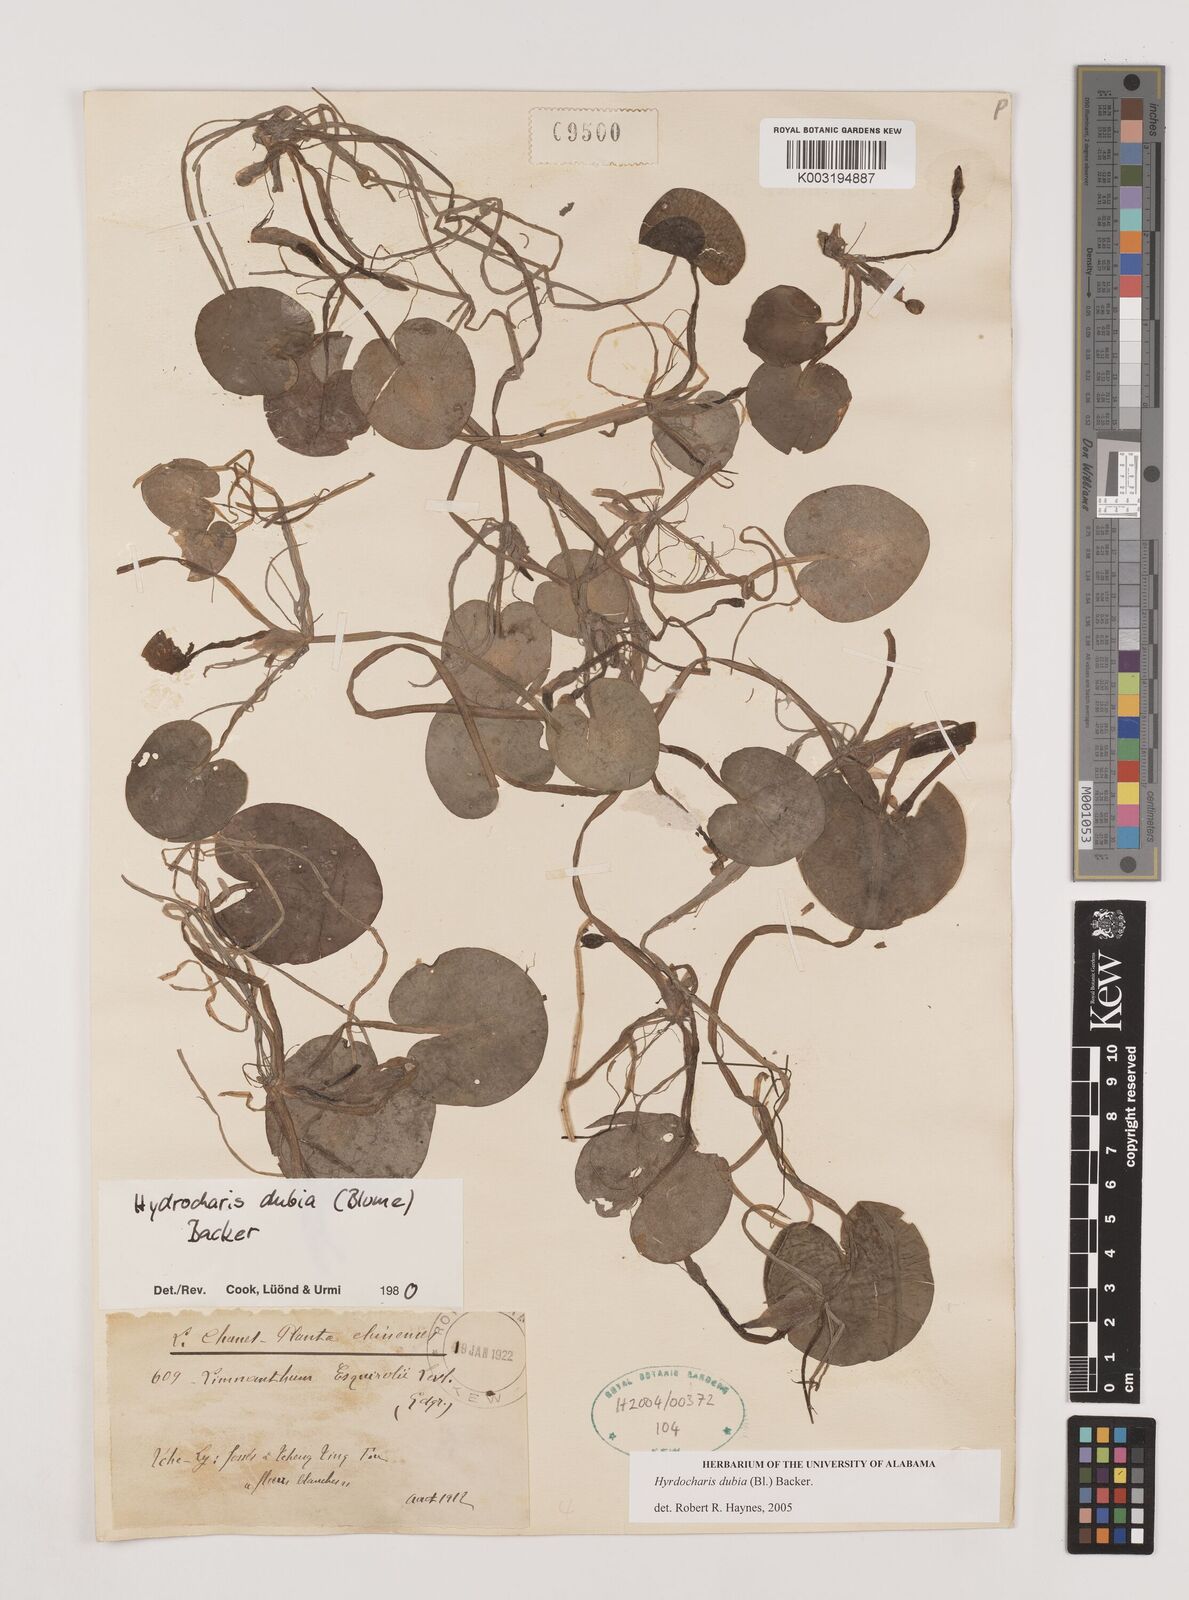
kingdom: Plantae
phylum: Tracheophyta
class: Liliopsida
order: Alismatales
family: Hydrocharitaceae
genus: Hydrocharis
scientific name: Hydrocharis dubia
